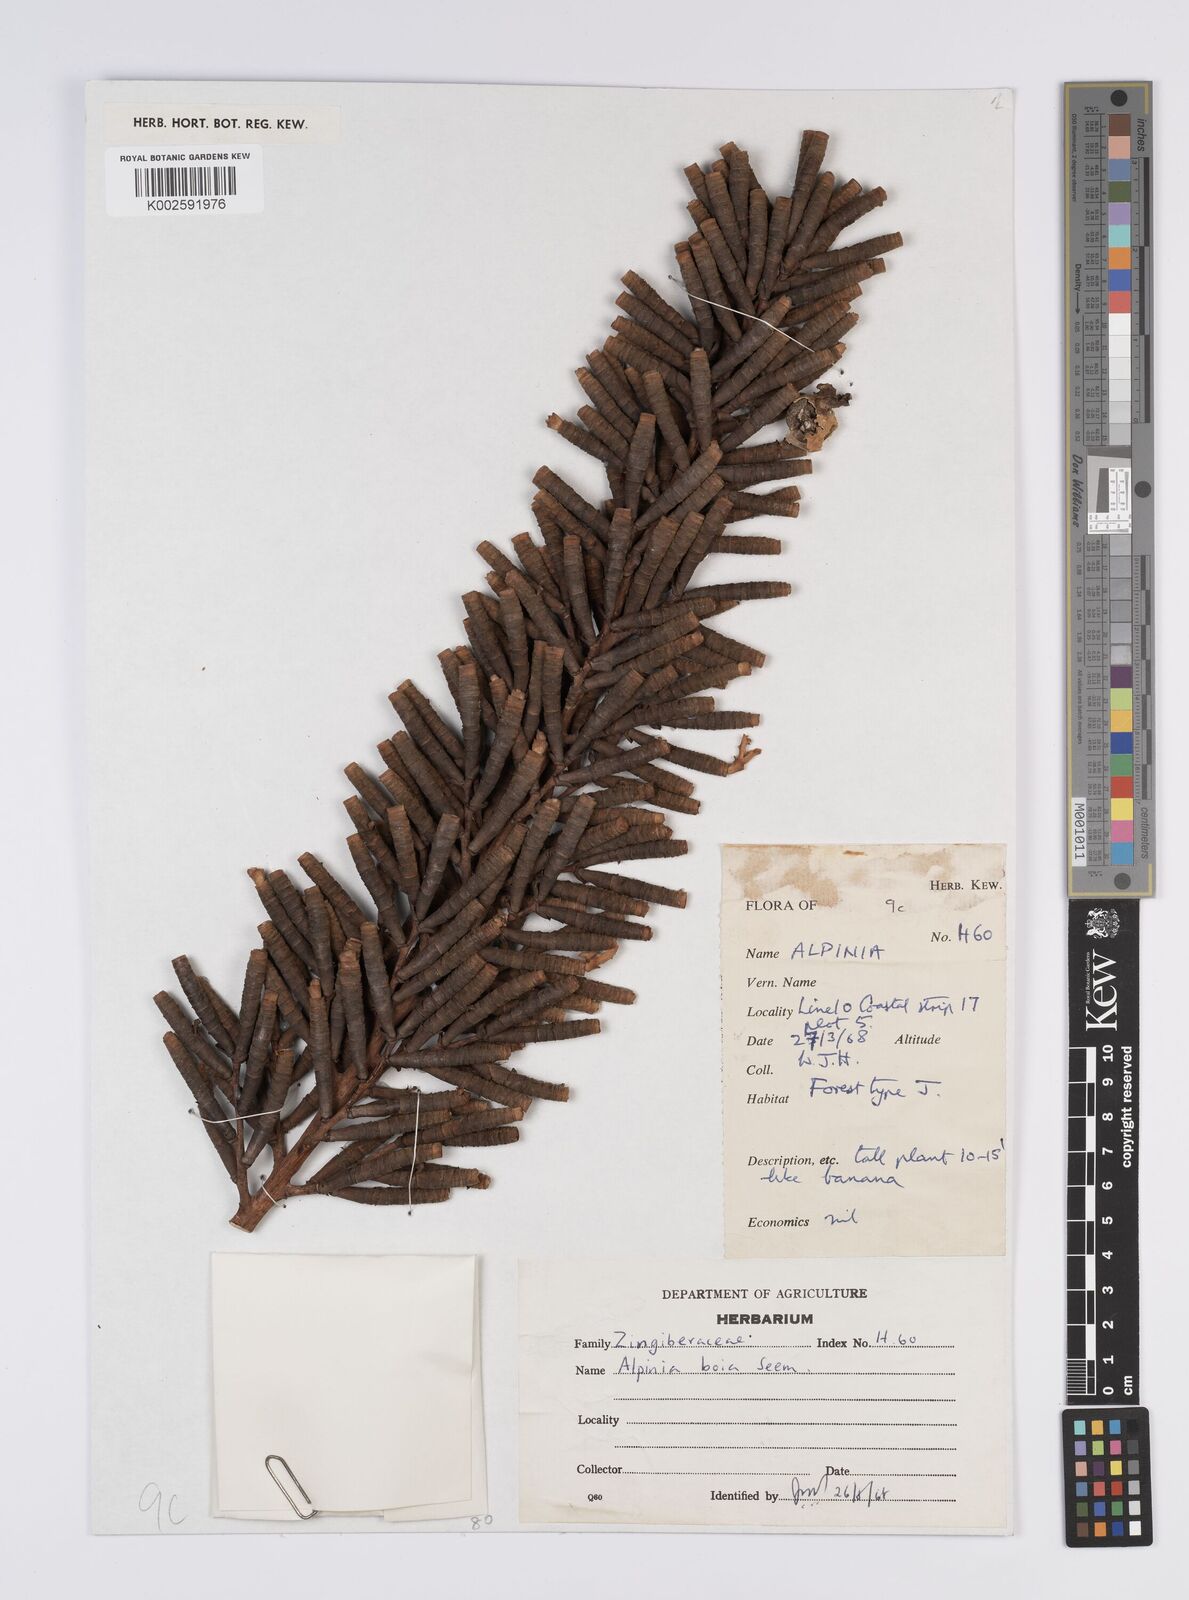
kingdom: Plantae
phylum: Tracheophyta
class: Liliopsida
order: Zingiberales
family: Zingiberaceae
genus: Alpinia
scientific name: Alpinia boia
